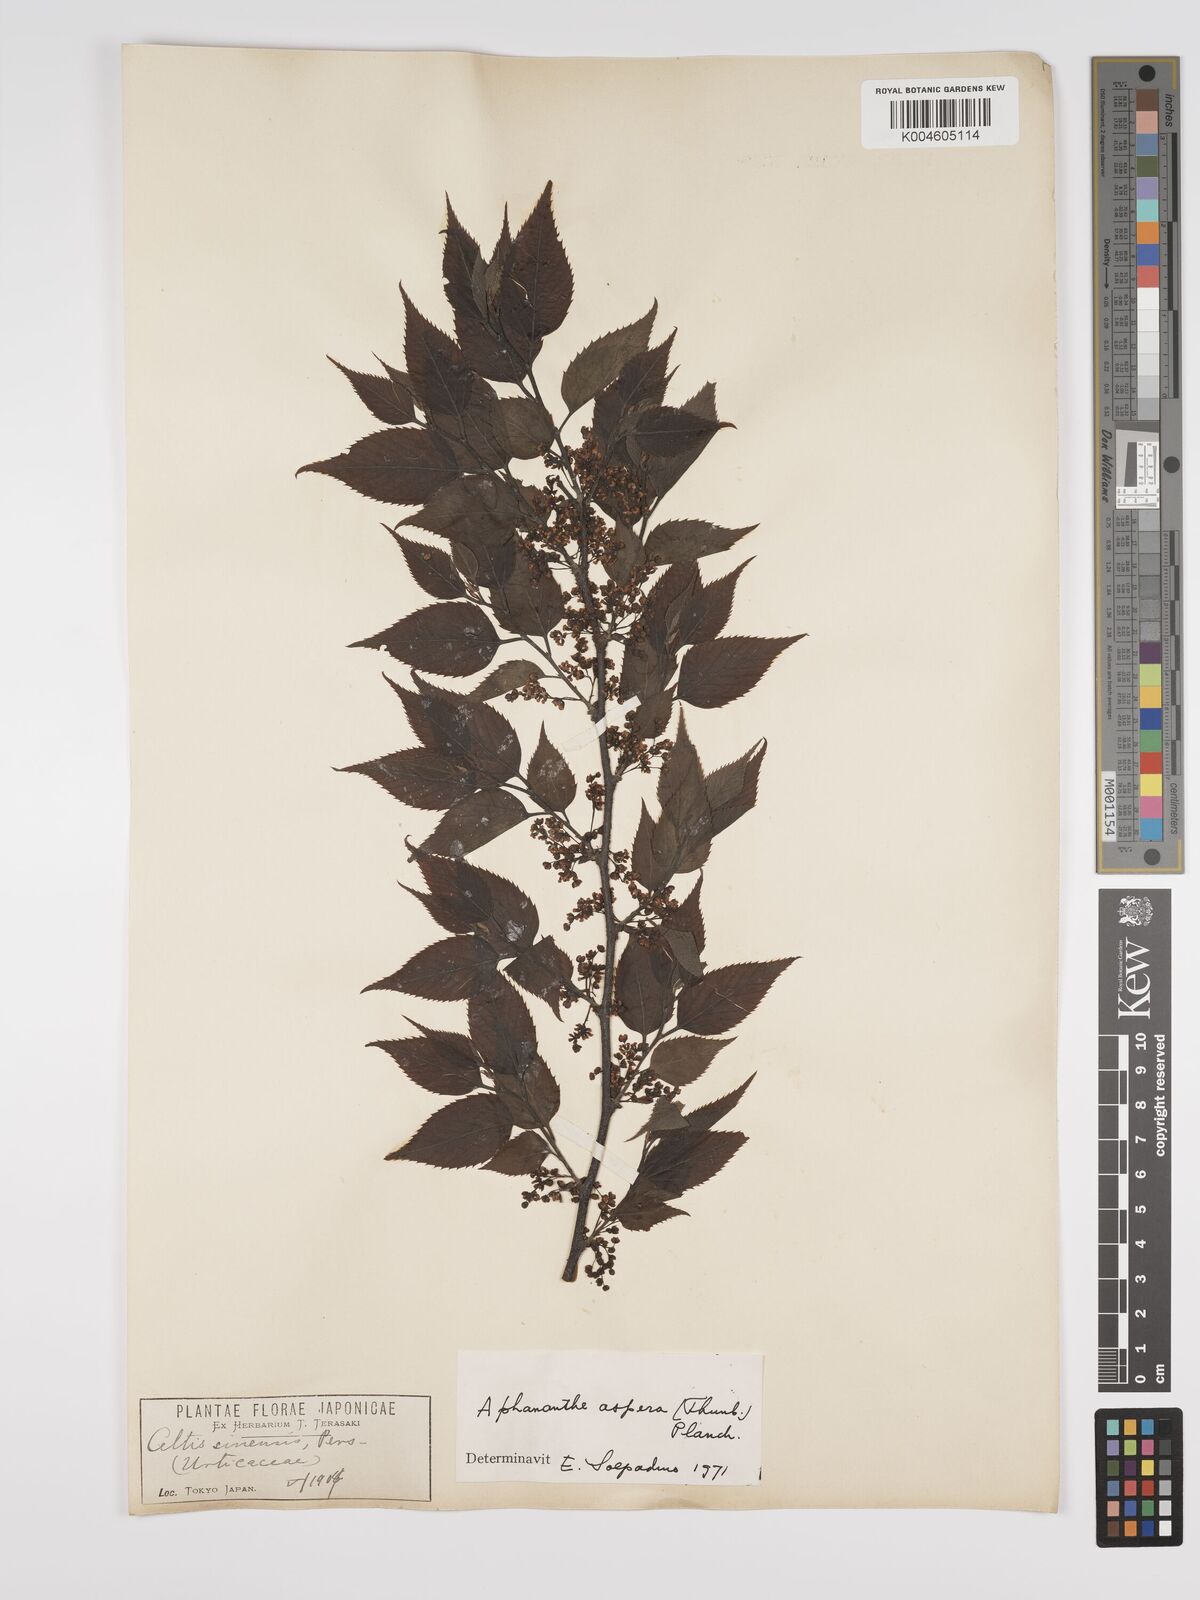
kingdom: Plantae
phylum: Tracheophyta
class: Magnoliopsida
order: Rosales
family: Cannabaceae
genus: Aphananthe
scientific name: Aphananthe aspera
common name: Mukutree
